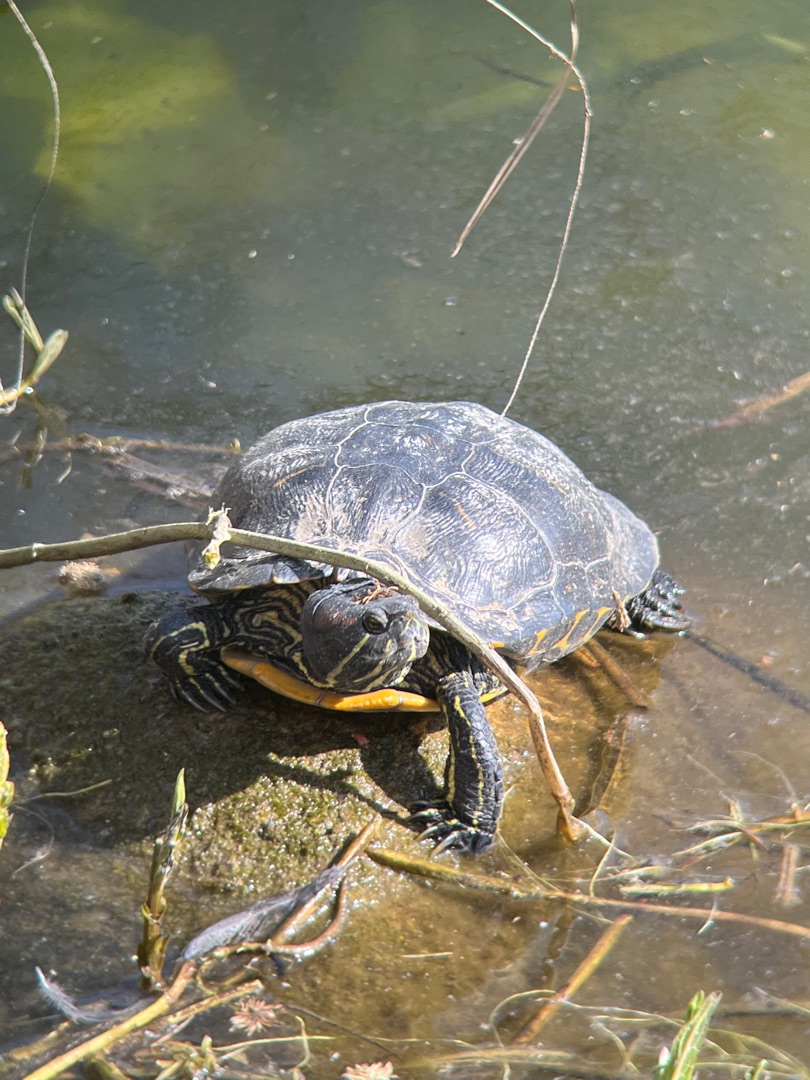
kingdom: Animalia
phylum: Chordata
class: Testudines
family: Emydidae
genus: Trachemys
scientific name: Trachemys scripta
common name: Rødøret terrapin
